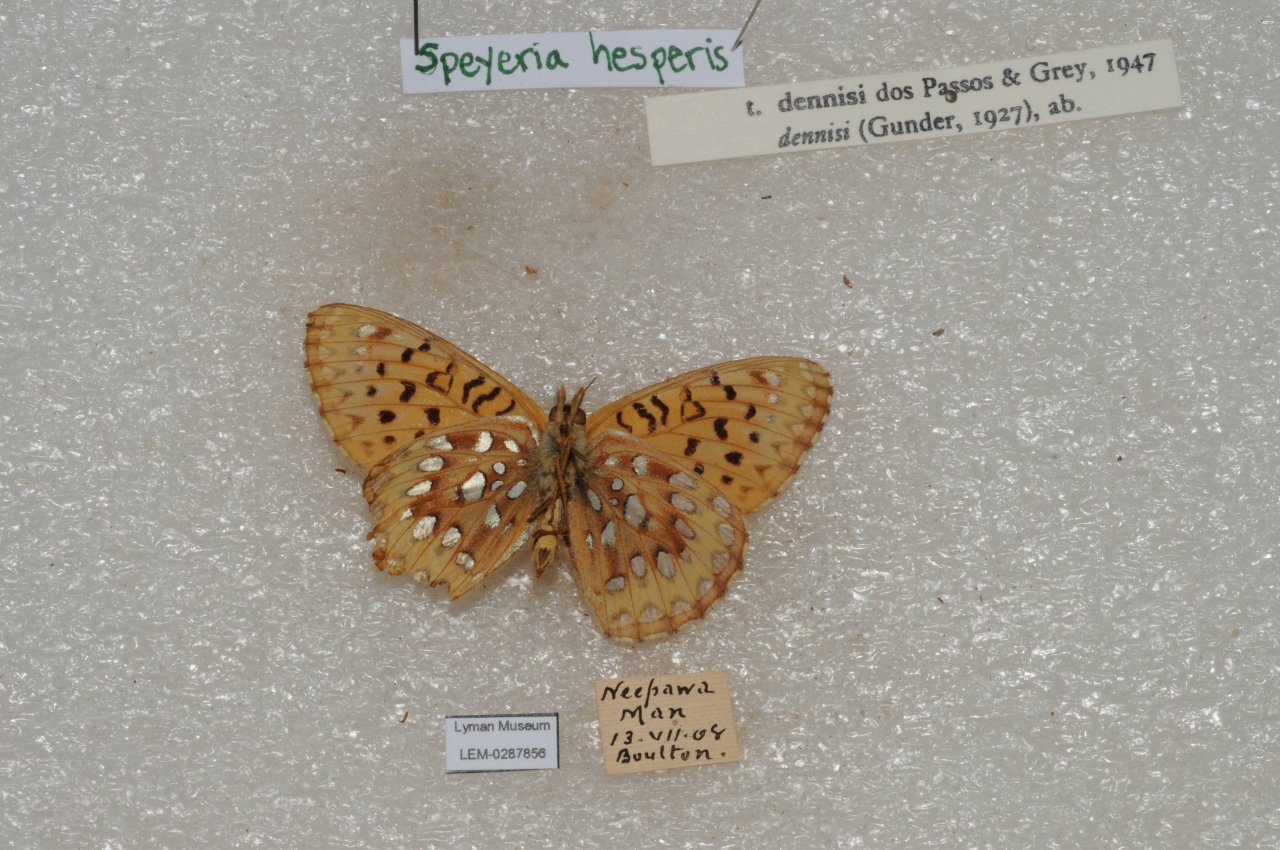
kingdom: Animalia
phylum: Arthropoda
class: Insecta
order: Lepidoptera
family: Nymphalidae
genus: Speyeria
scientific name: Speyeria atlantis
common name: Northwestern Fritillary
